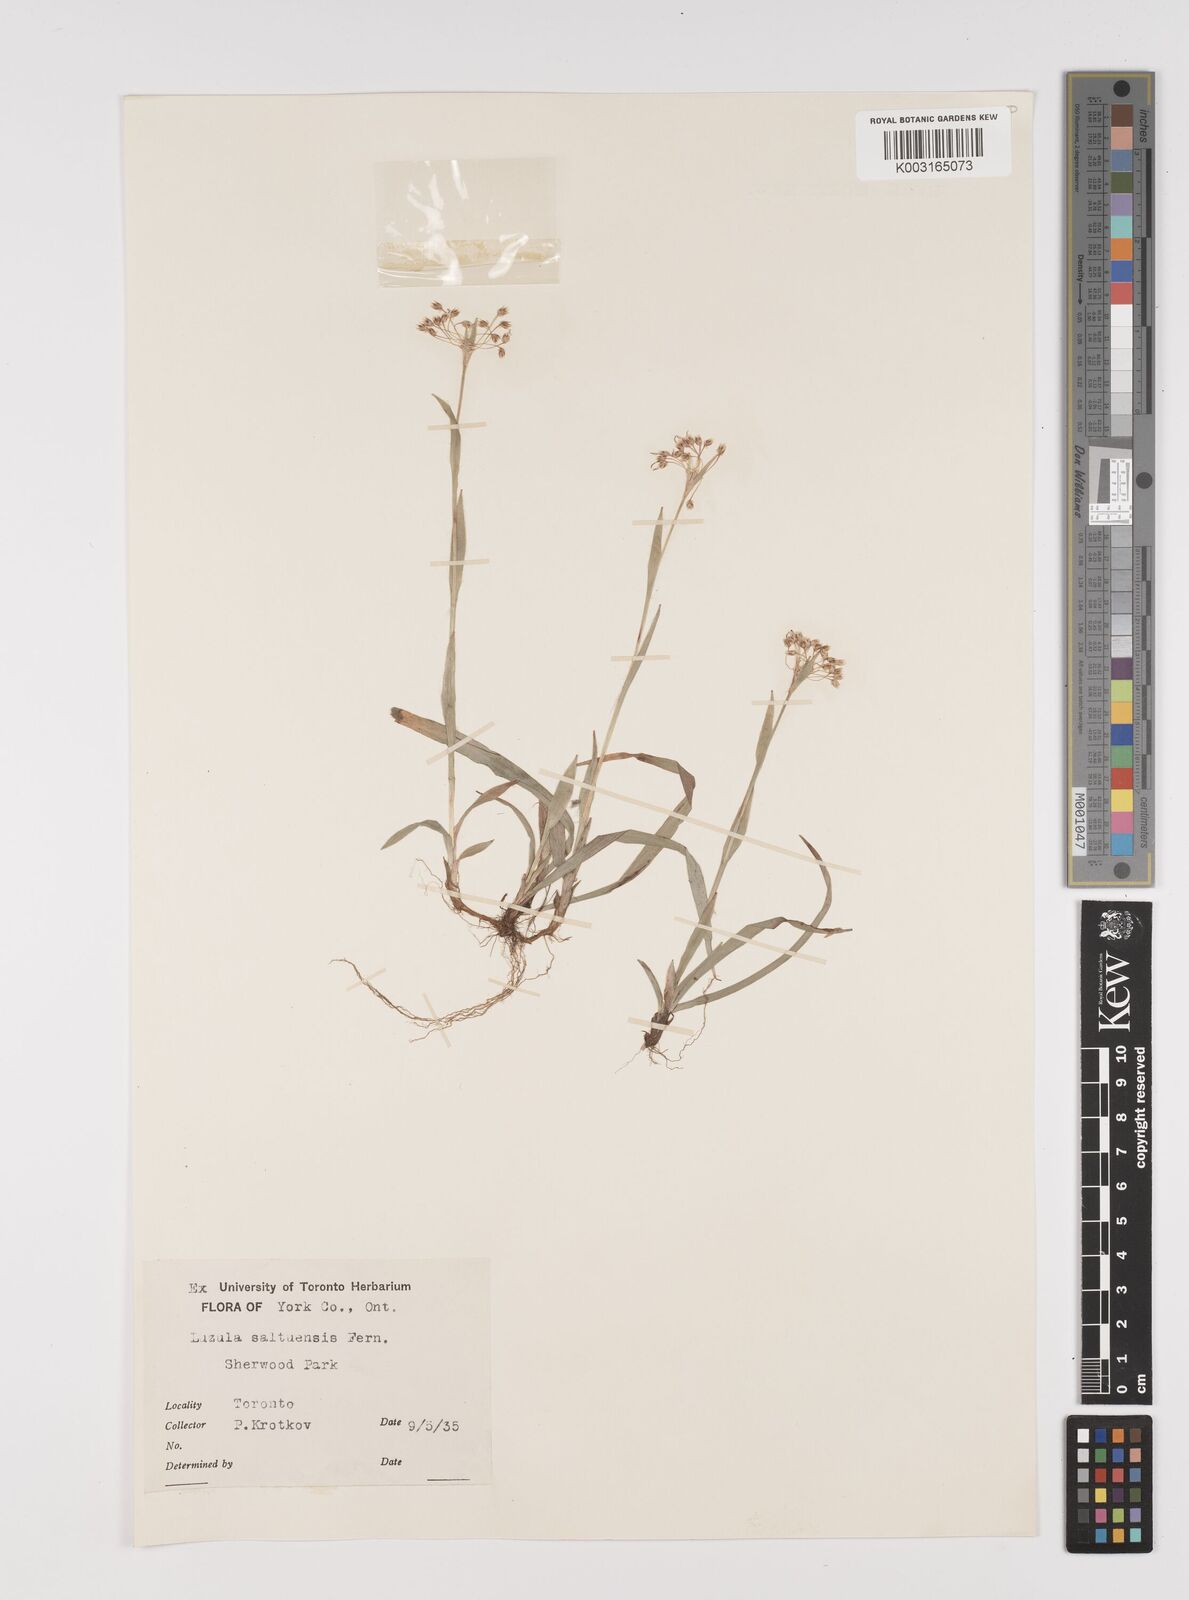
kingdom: Plantae
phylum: Tracheophyta
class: Liliopsida
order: Poales
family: Juncaceae
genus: Luzula
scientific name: Luzula acuminata
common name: Hairy woodrush
